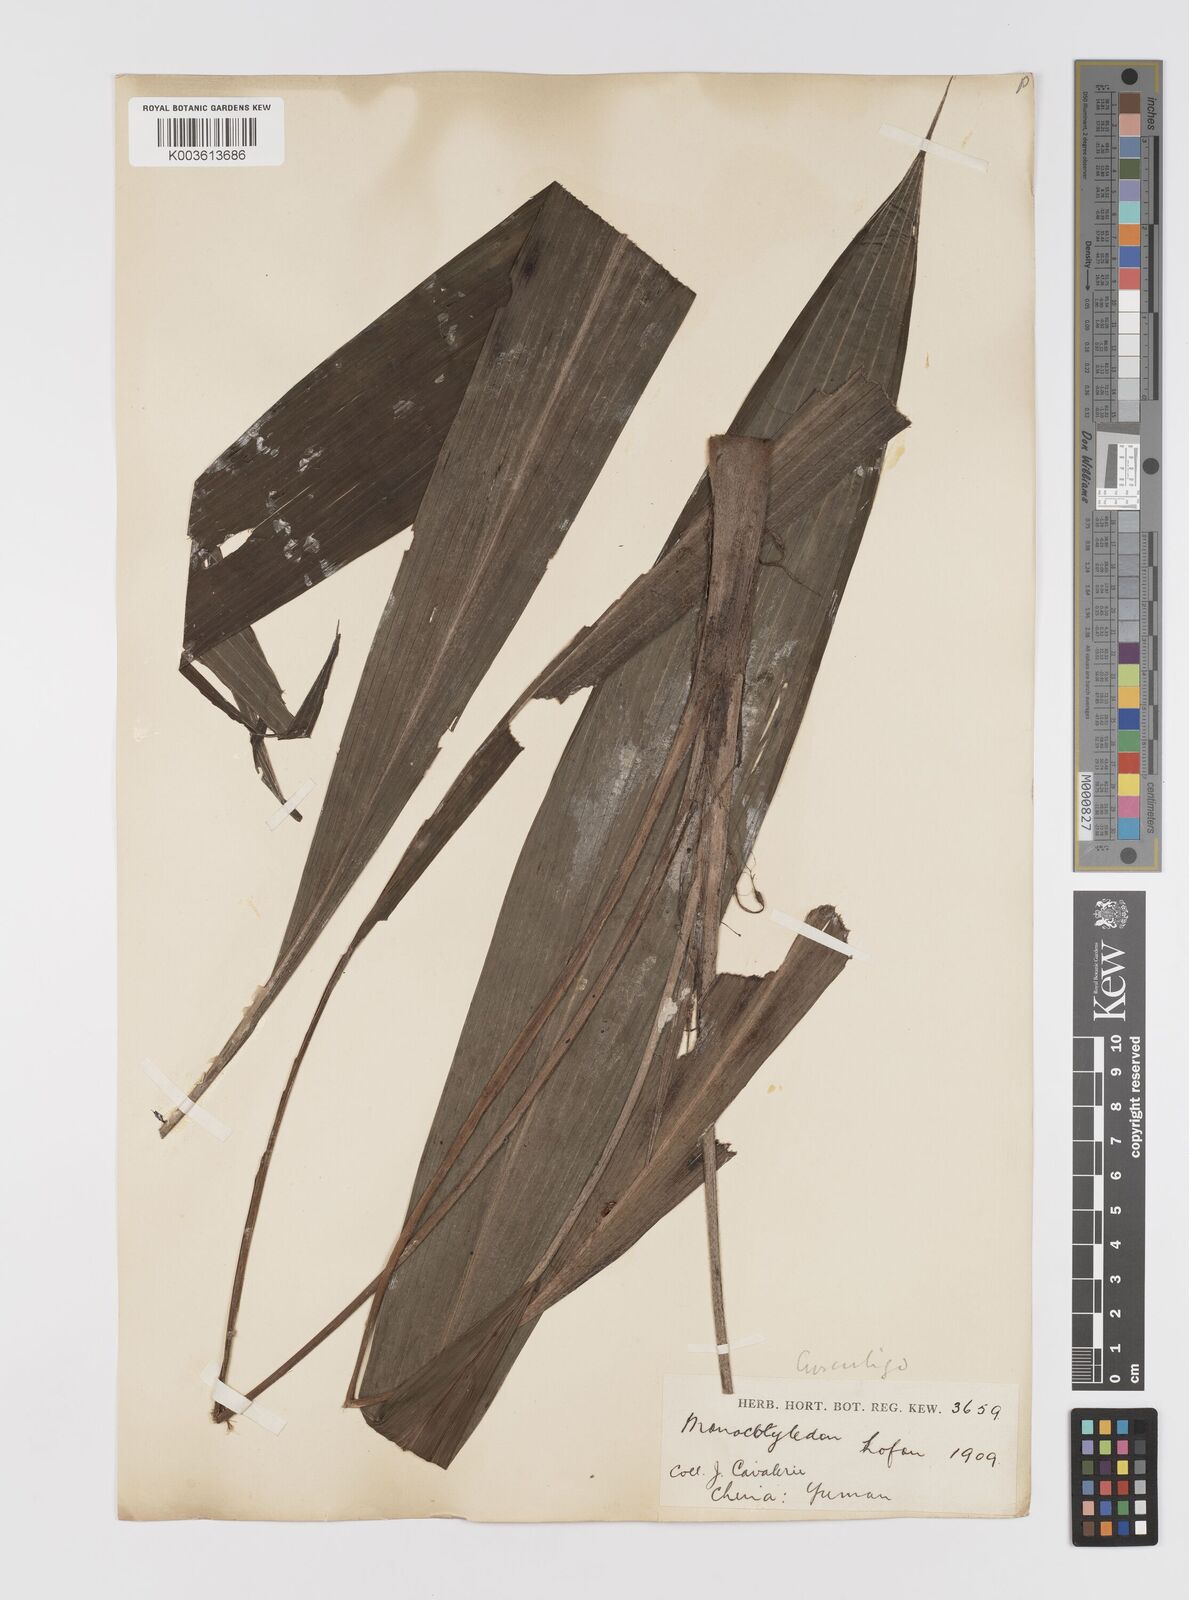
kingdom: Plantae
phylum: Tracheophyta
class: Liliopsida
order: Asparagales
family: Hypoxidaceae
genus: Curculigo
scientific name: Curculigo capitulata
